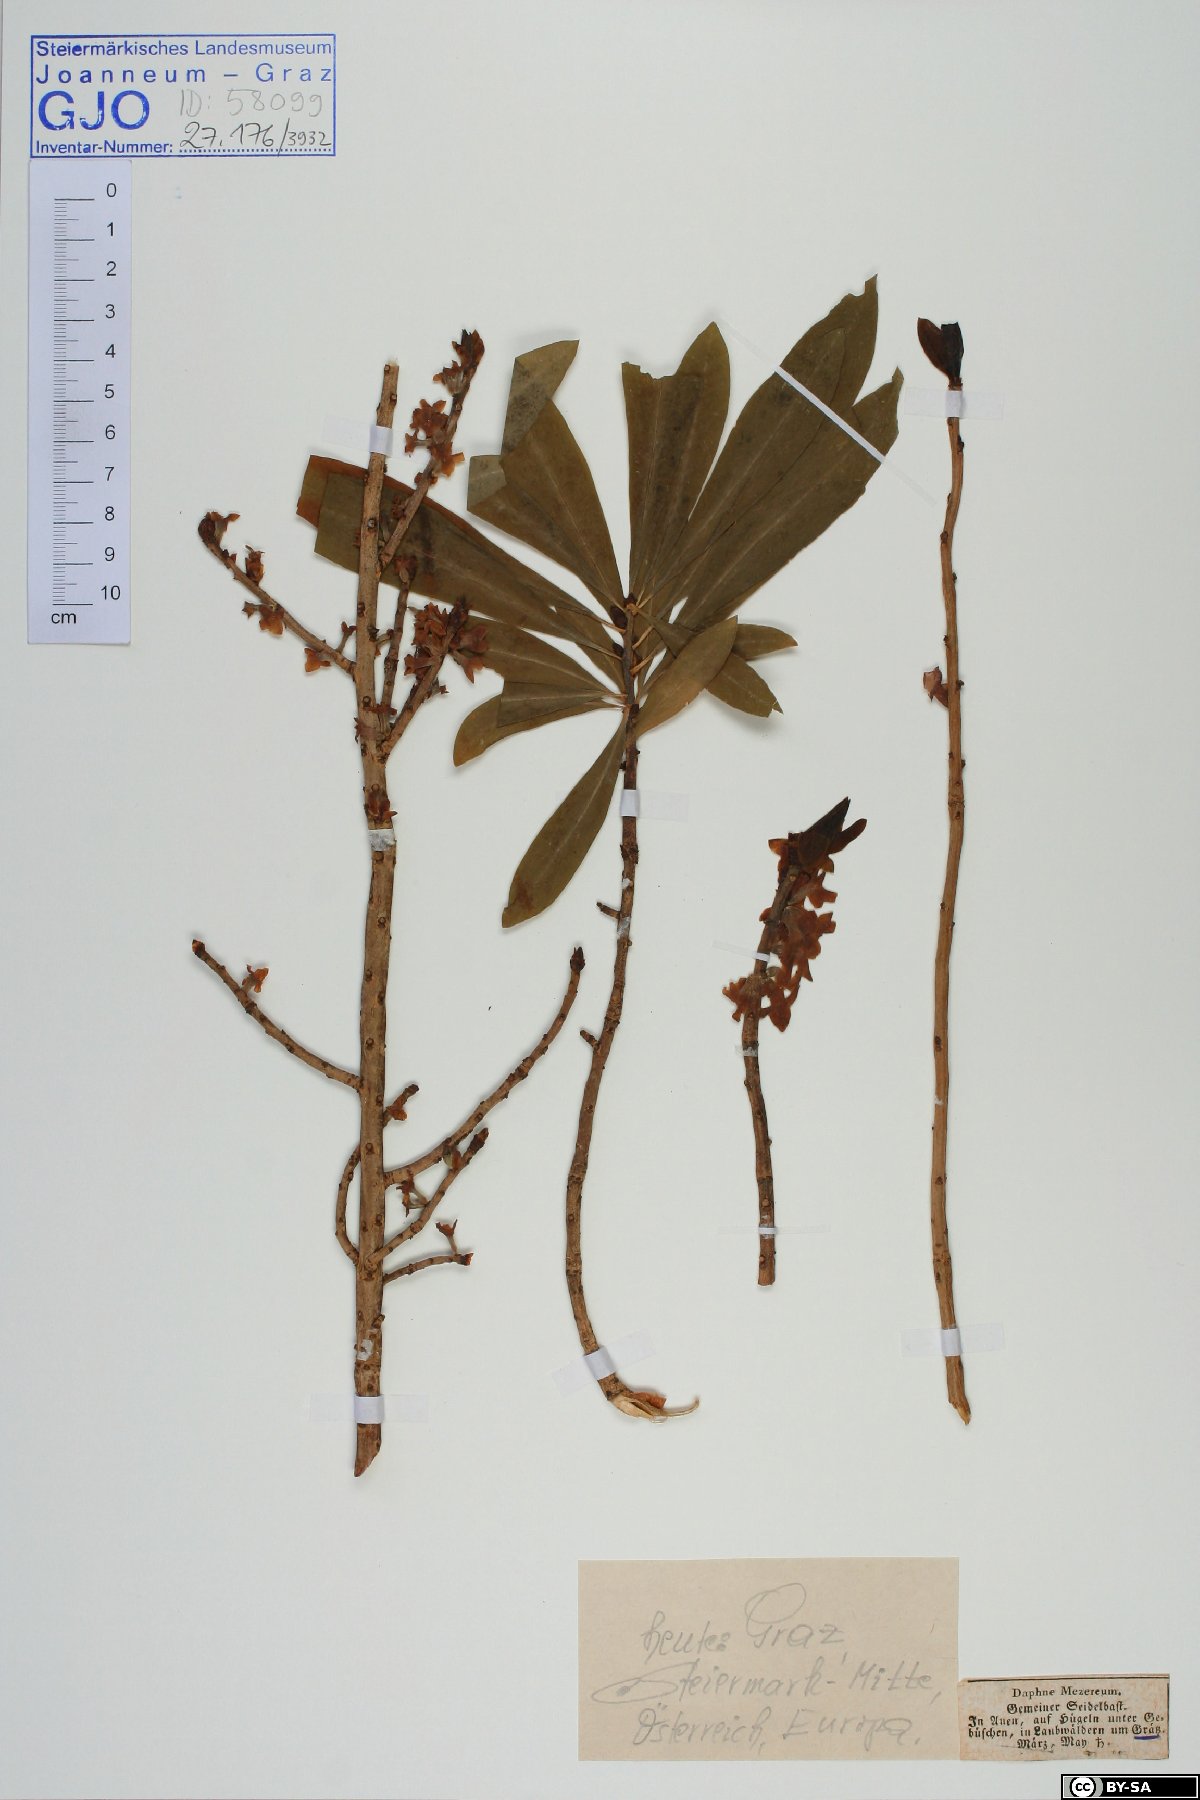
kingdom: Plantae
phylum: Tracheophyta
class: Magnoliopsida
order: Malvales
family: Thymelaeaceae
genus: Daphne
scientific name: Daphne mezereum
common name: Mezereon
